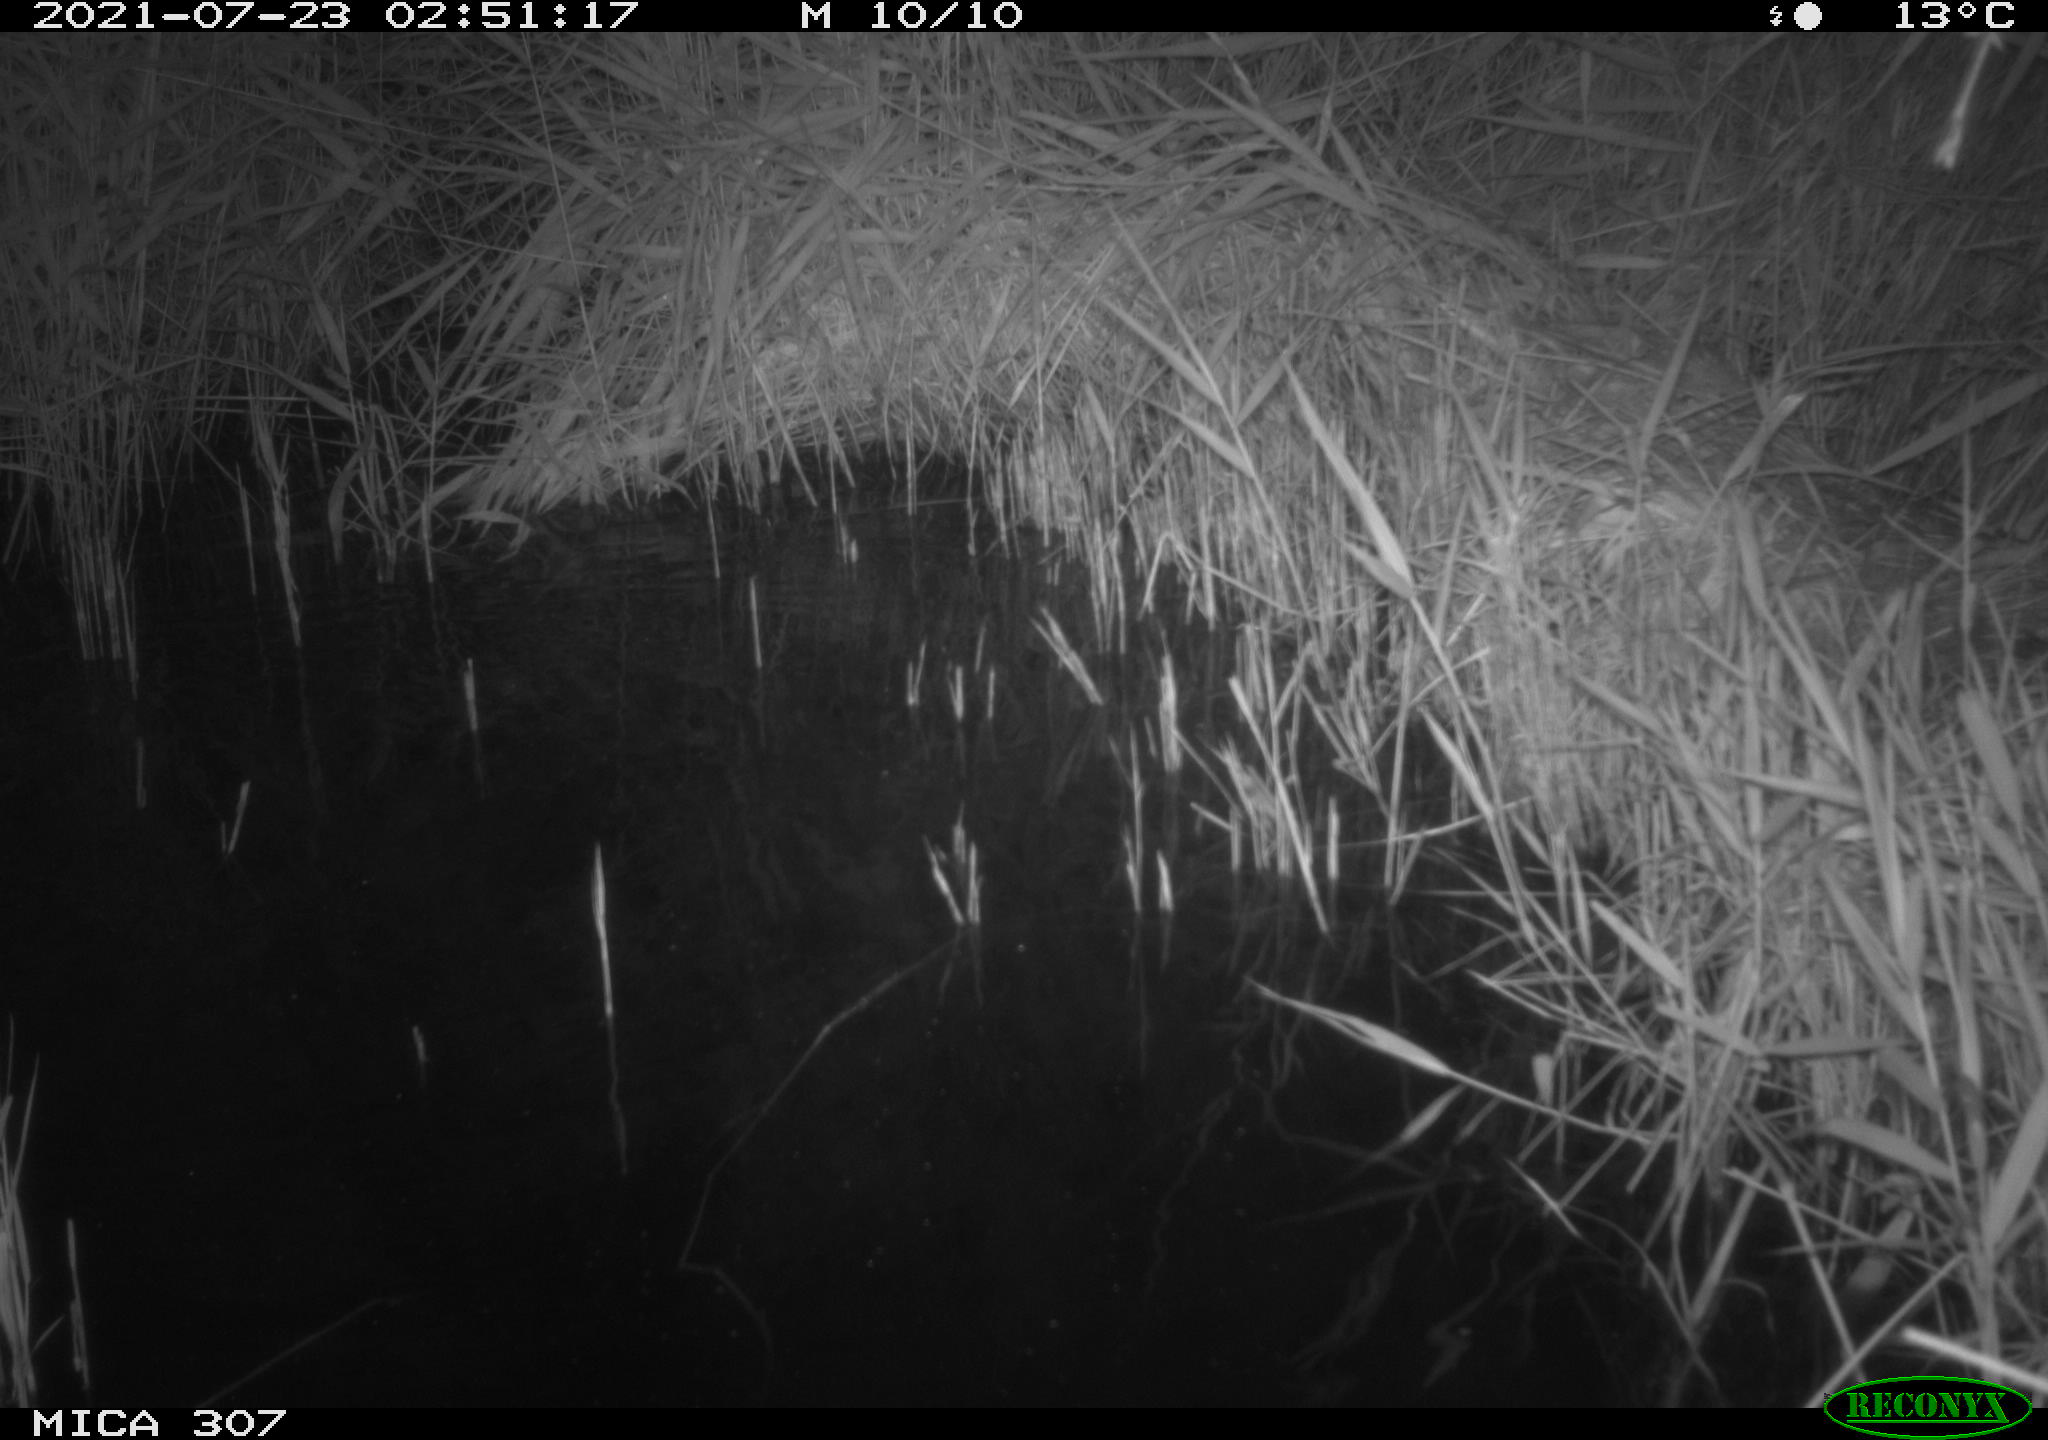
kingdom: Animalia
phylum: Chordata
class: Mammalia
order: Rodentia
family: Muridae
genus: Rattus
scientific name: Rattus norvegicus
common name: Brown rat
